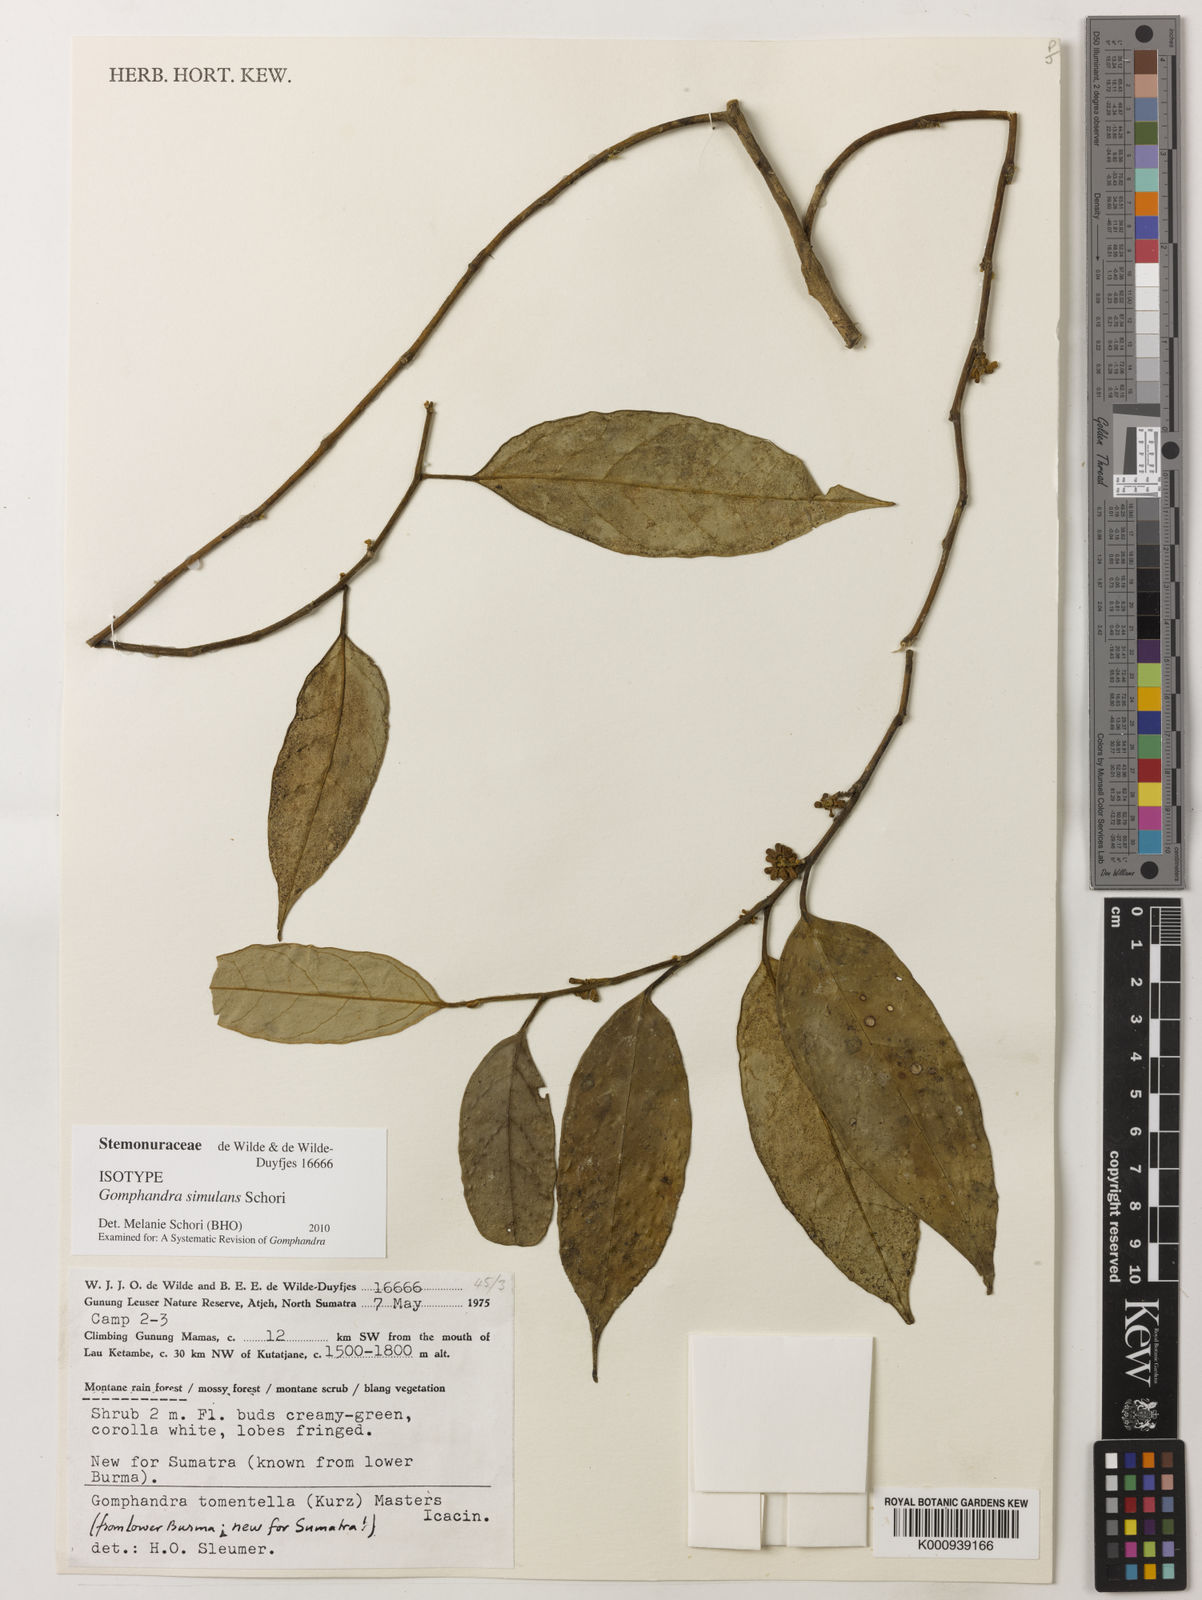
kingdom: Plantae
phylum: Tracheophyta
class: Magnoliopsida
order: Cardiopteridales
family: Stemonuraceae
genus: Gomphandra
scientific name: Gomphandra
